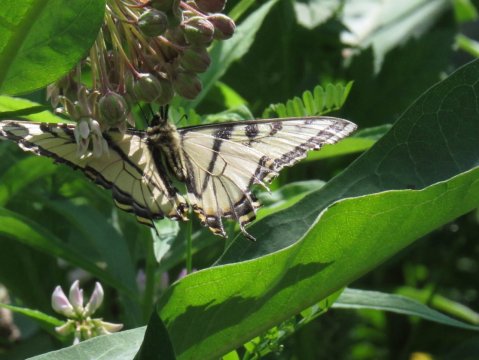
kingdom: Animalia
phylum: Arthropoda
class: Insecta
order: Lepidoptera
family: Papilionidae
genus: Pterourus
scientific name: Pterourus canadensis
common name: Canadian Tiger Swallowtail
